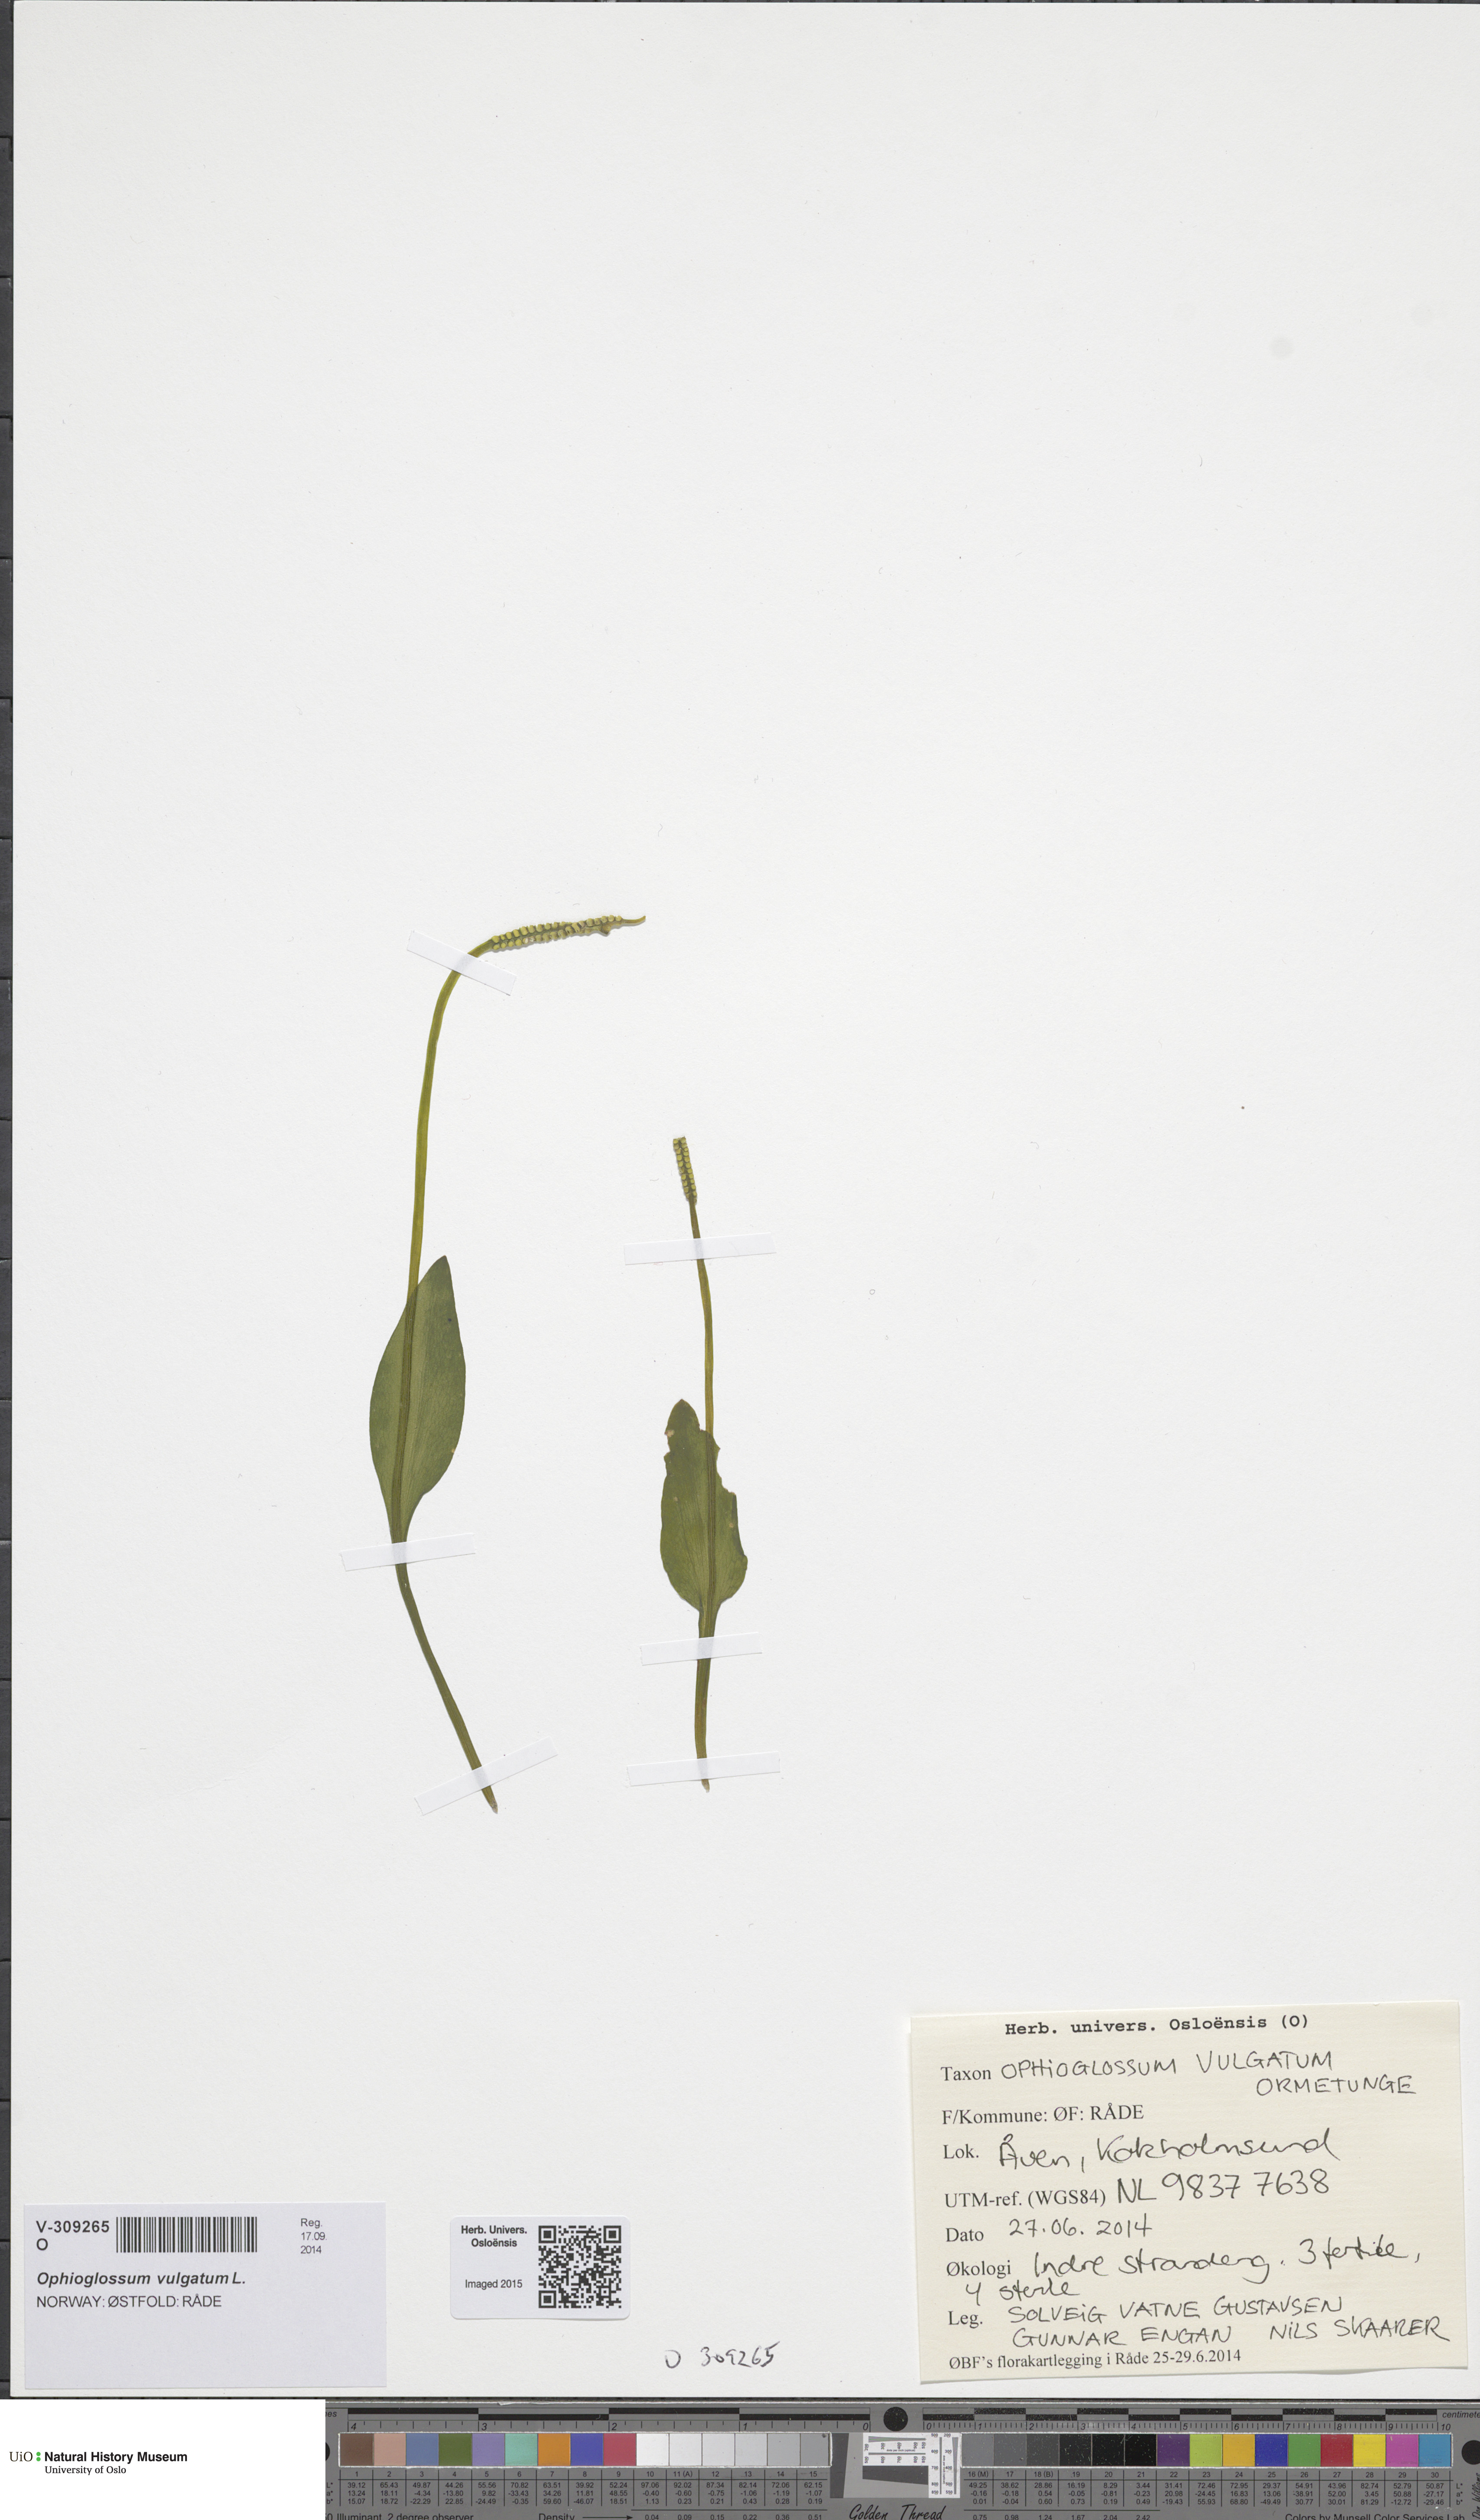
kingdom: Plantae
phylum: Tracheophyta
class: Polypodiopsida
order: Ophioglossales
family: Ophioglossaceae
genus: Ophioglossum
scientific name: Ophioglossum vulgatum
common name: Adder's-tongue
